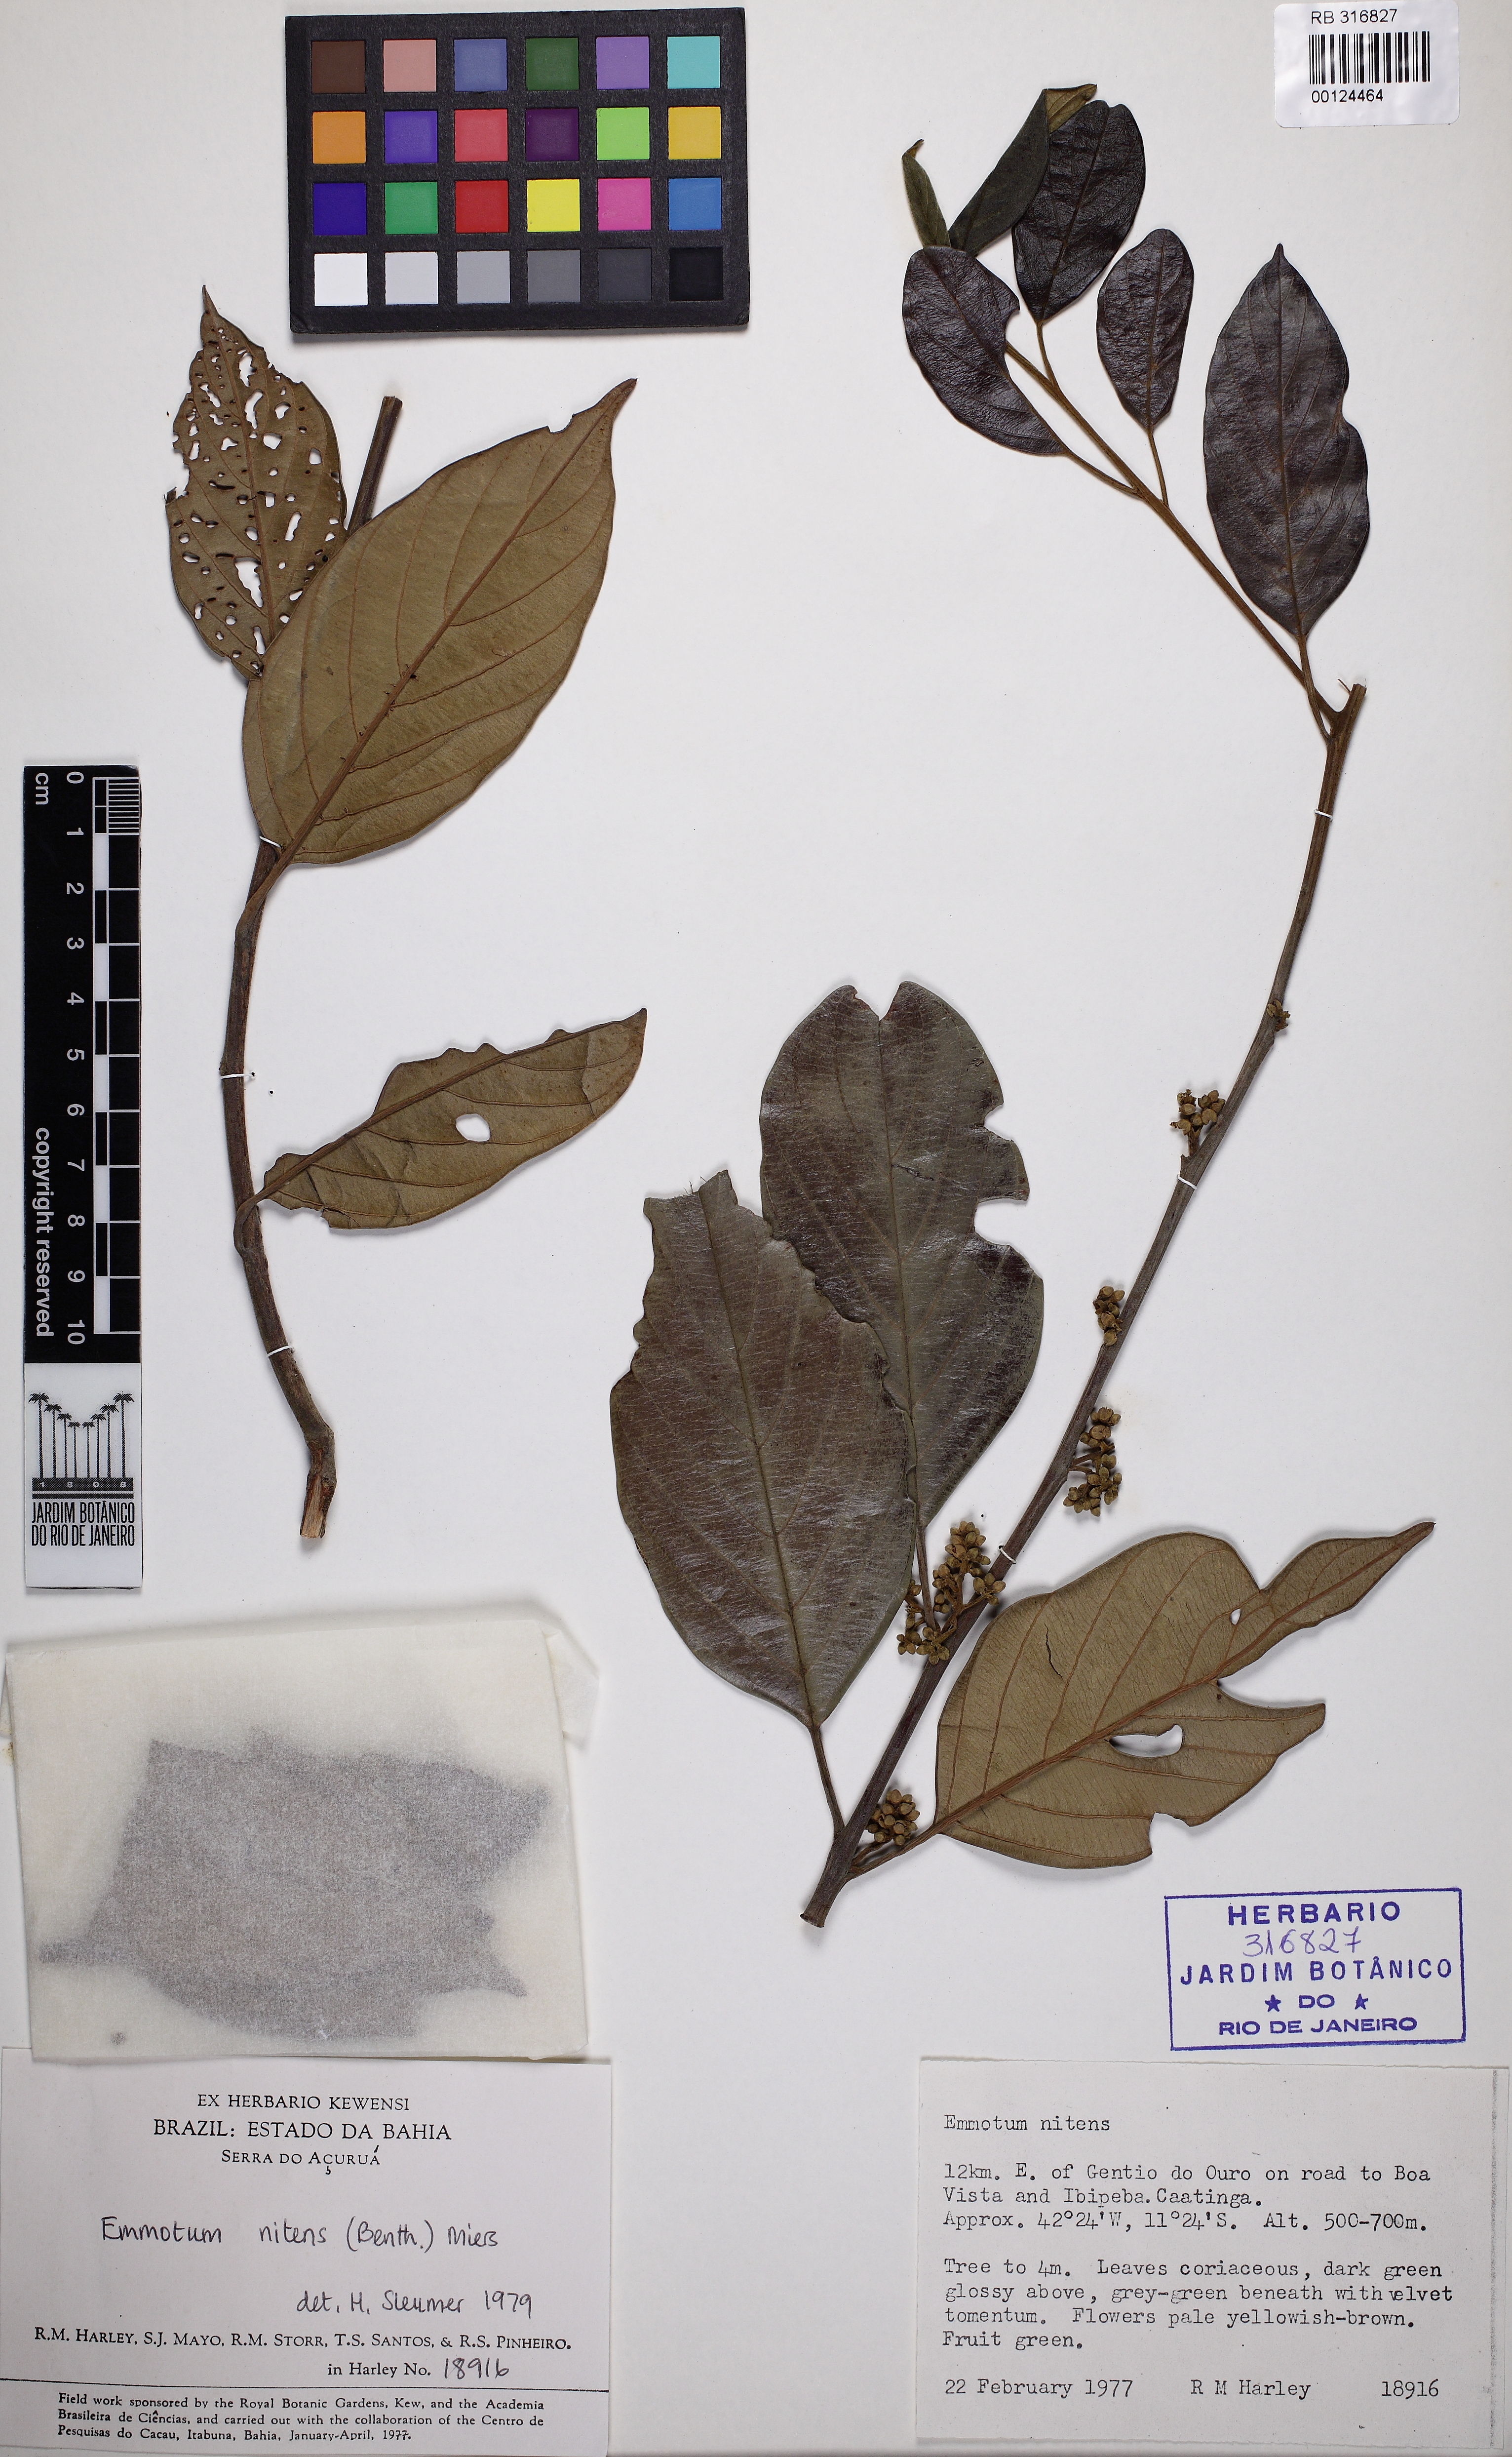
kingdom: Plantae
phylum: Tracheophyta
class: Magnoliopsida
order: Metteniusales
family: Metteniusaceae
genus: Emmotum
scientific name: Emmotum nitens
